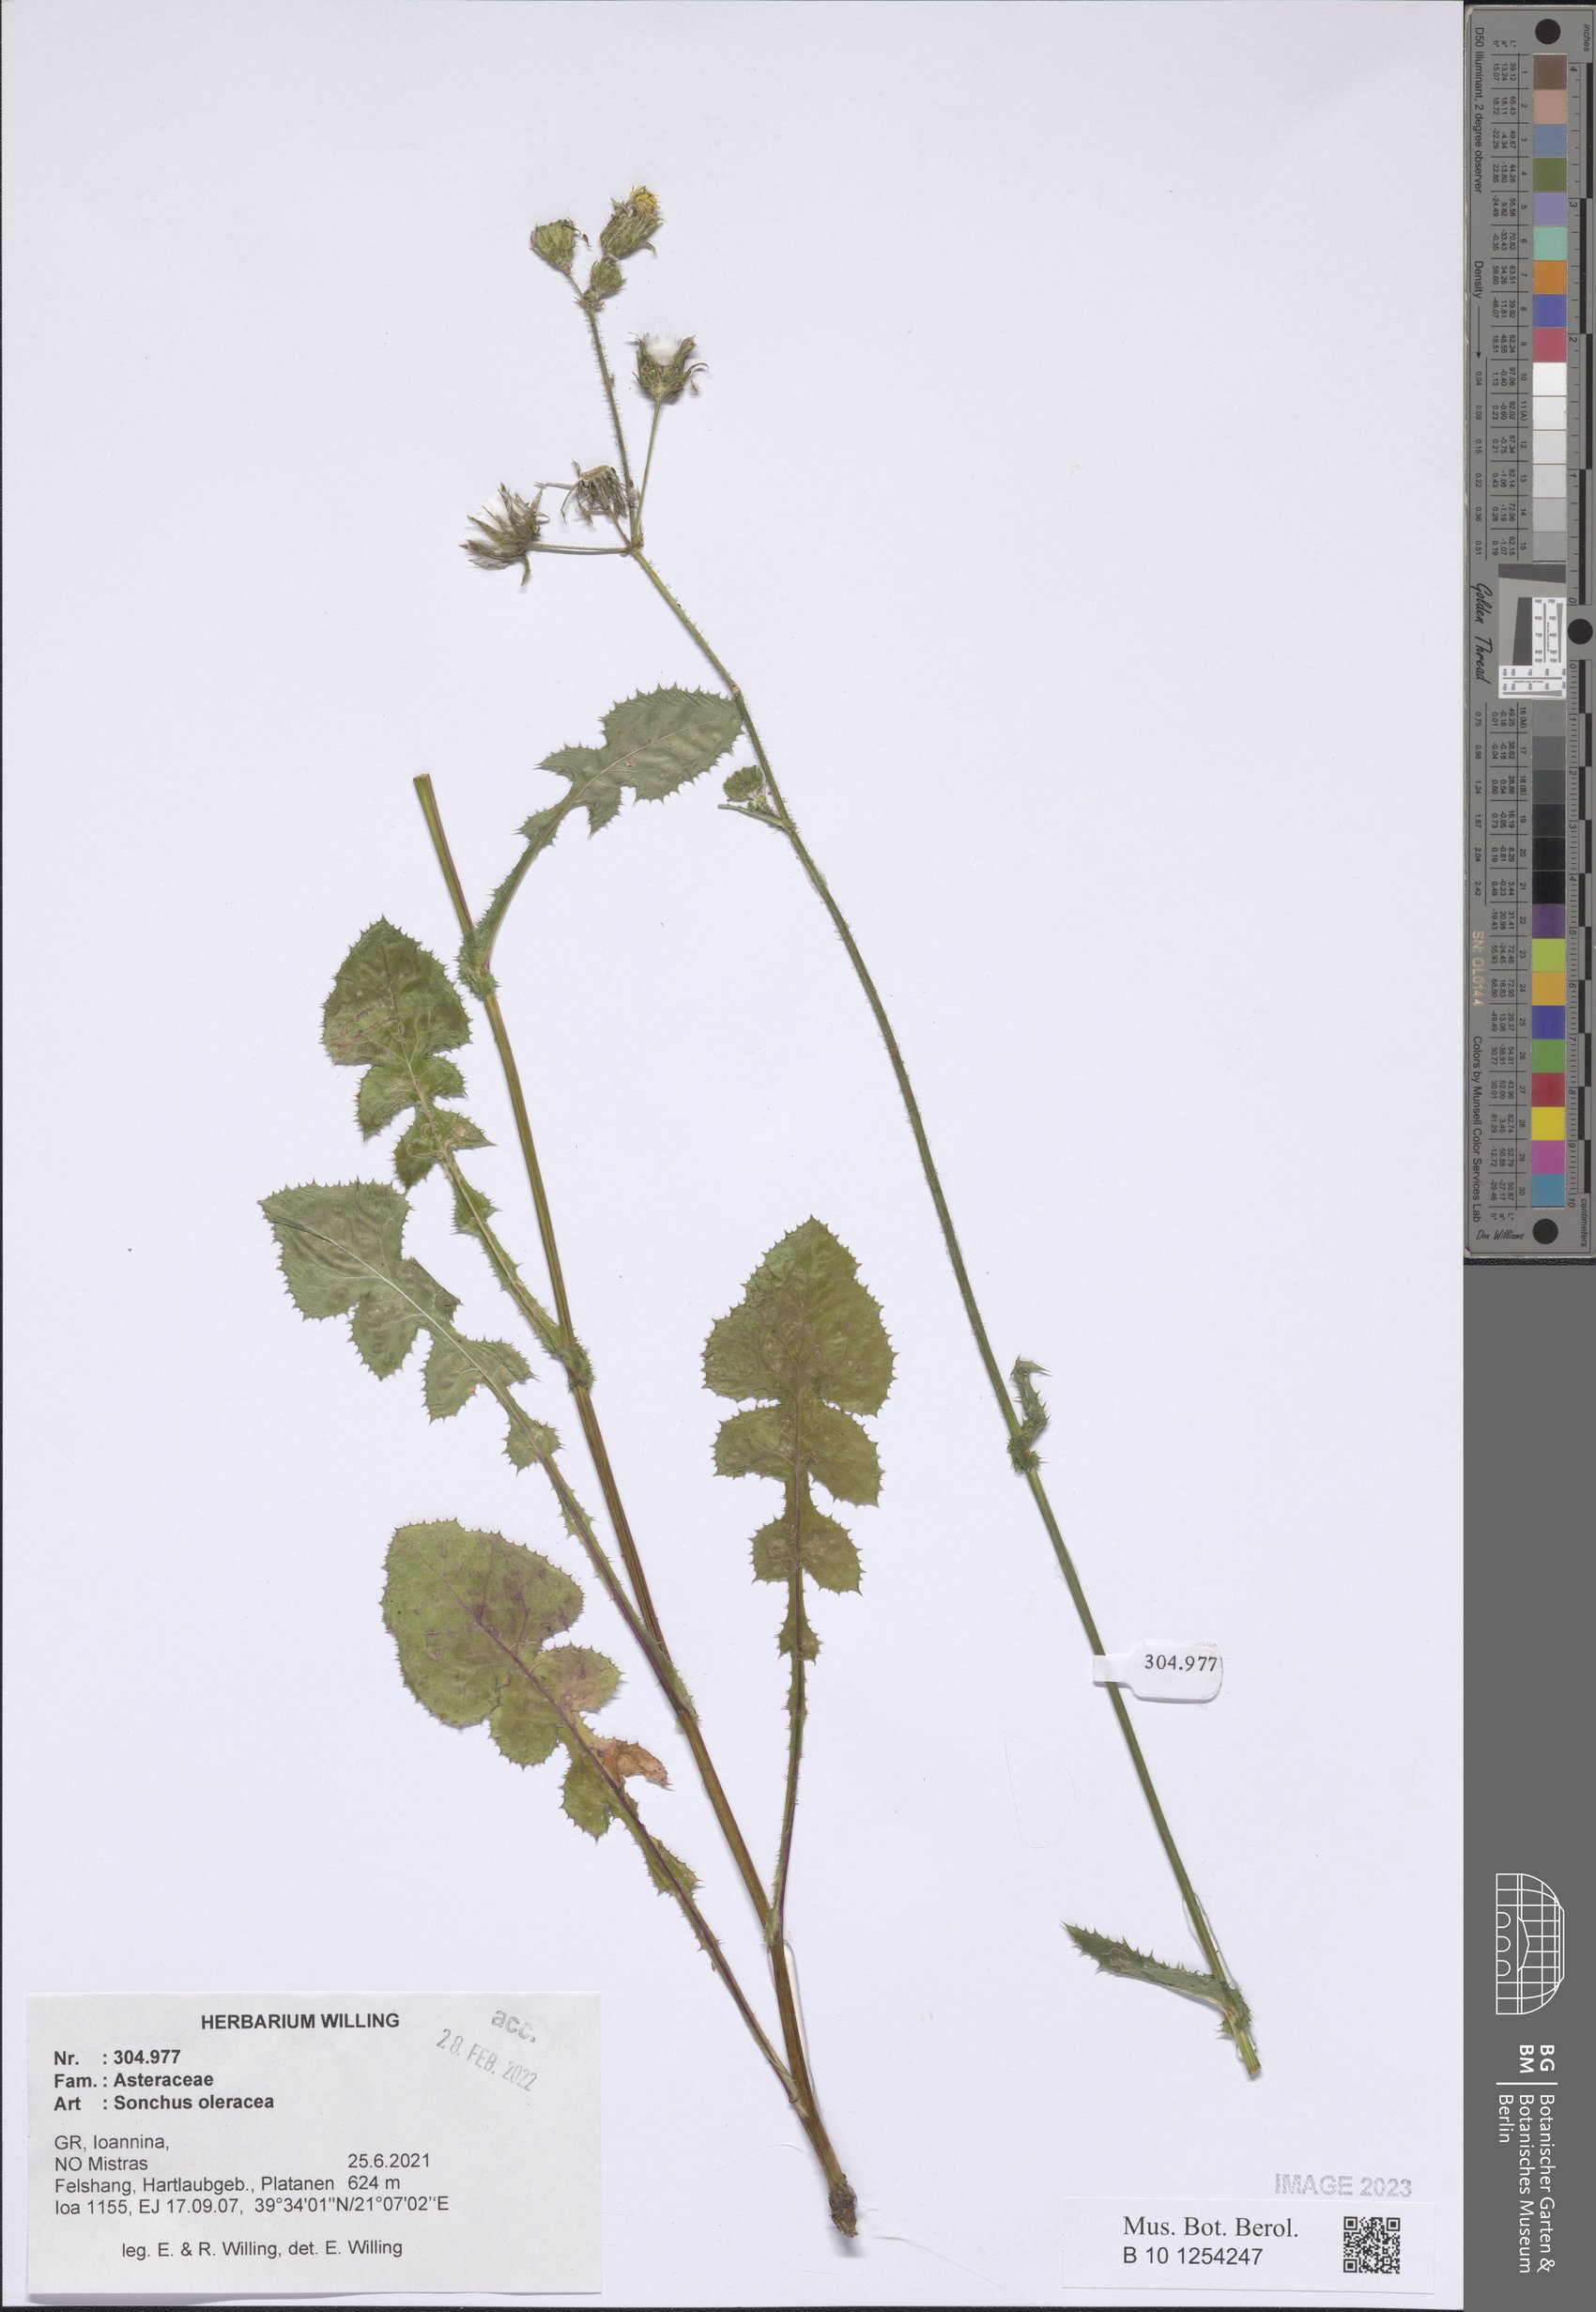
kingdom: Plantae
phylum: Tracheophyta
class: Magnoliopsida
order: Asterales
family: Asteraceae
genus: Sonchus
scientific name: Sonchus oleraceus
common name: Common sowthistle
